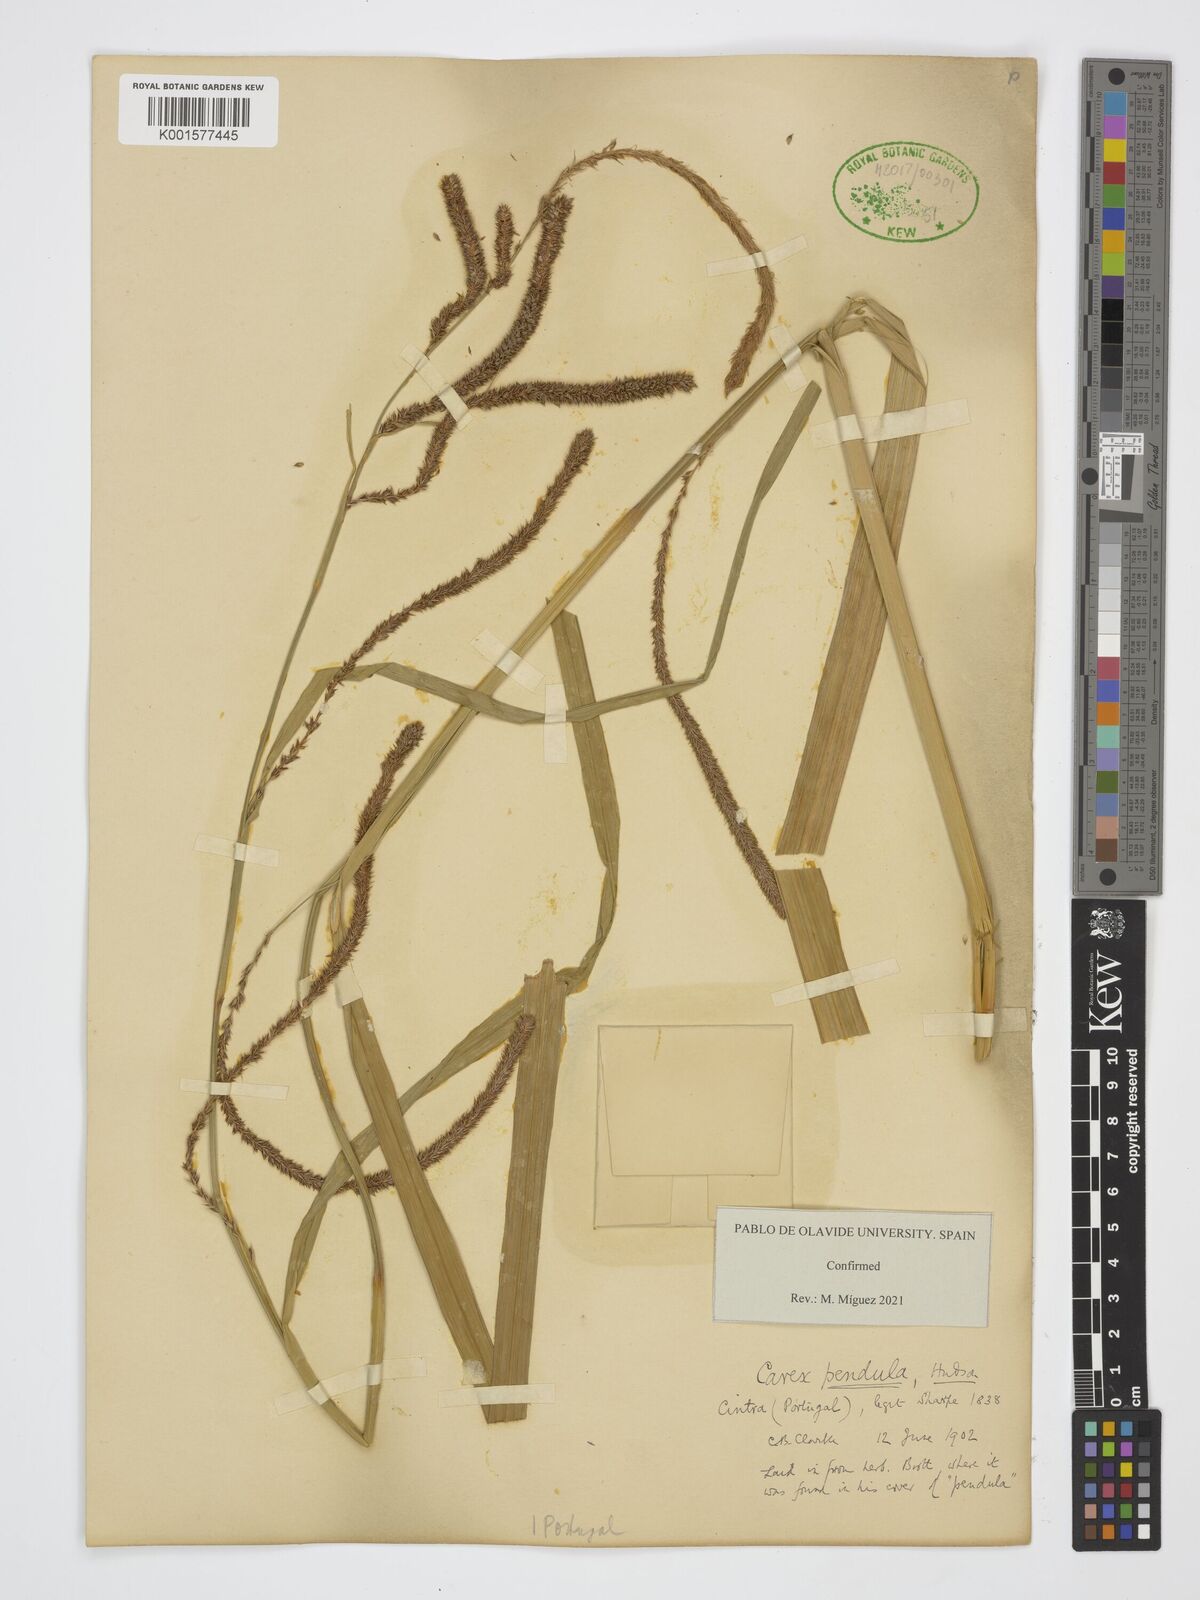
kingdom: Plantae
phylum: Tracheophyta
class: Liliopsida
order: Poales
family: Cyperaceae
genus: Carex
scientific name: Carex pendula
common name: Pendulous sedge
